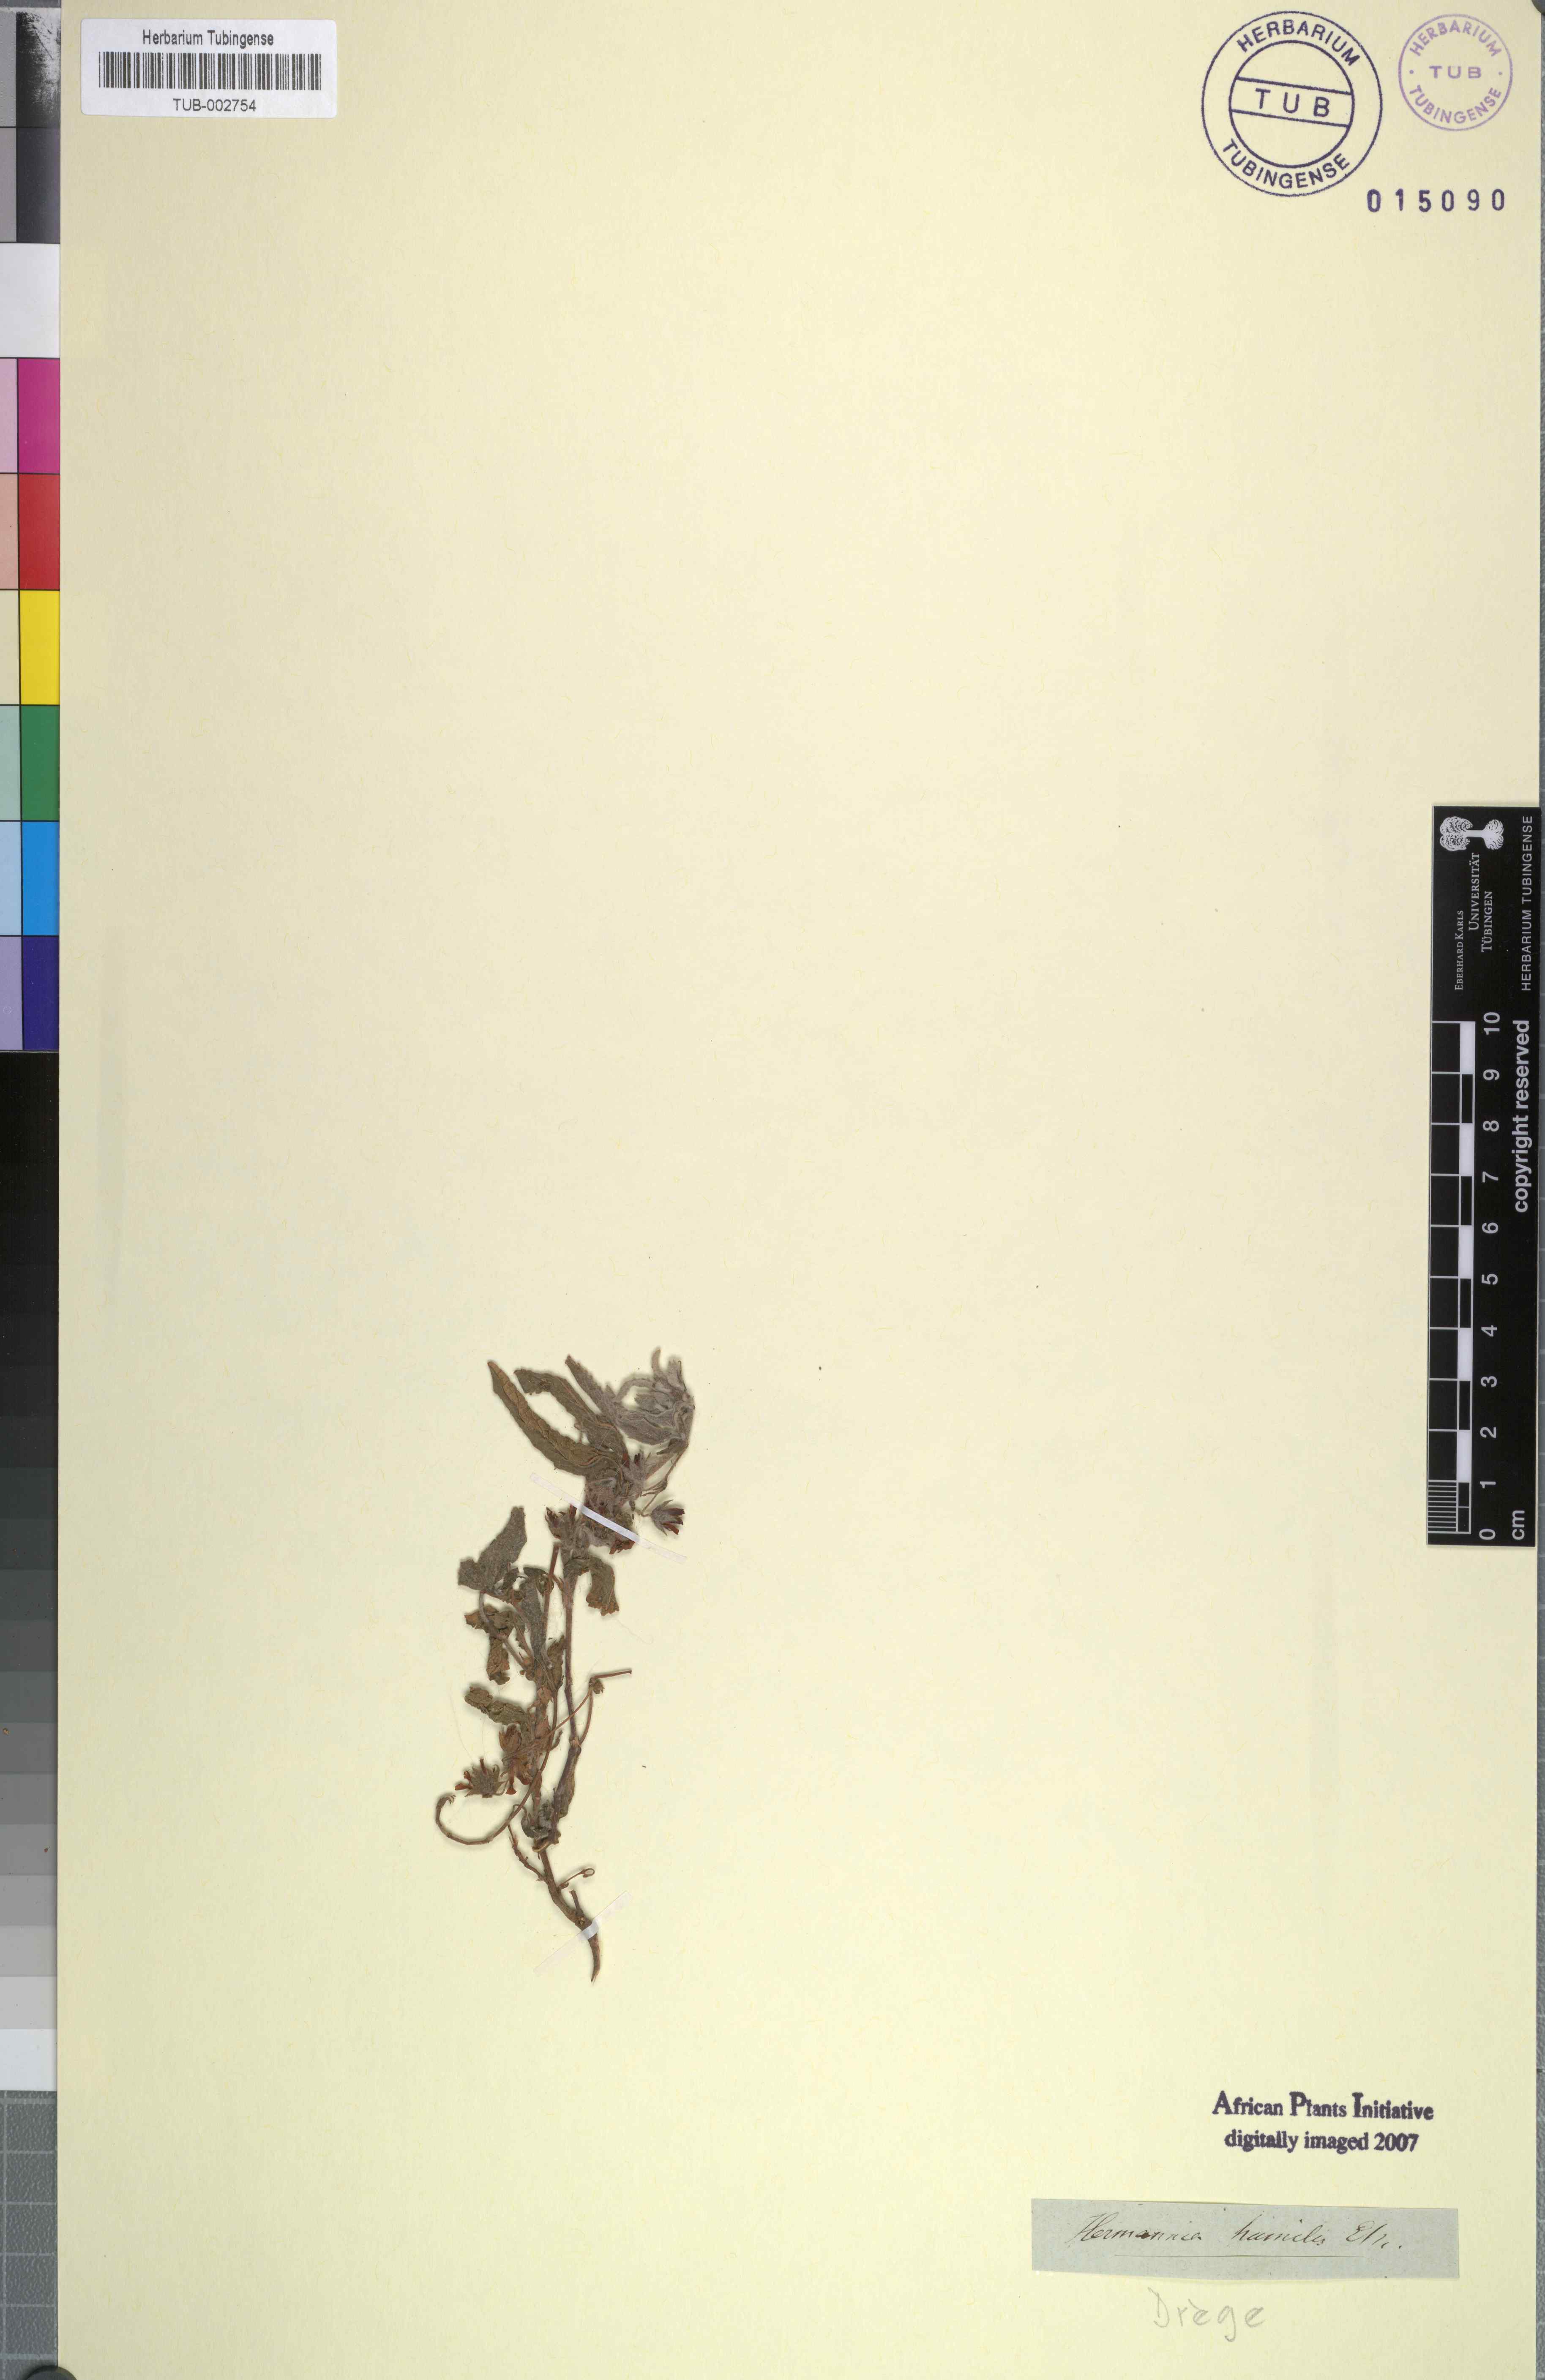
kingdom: Plantae
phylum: Tracheophyta
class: Magnoliopsida
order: Malvales
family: Malvaceae
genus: Hermannia
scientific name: Hermannia oblongifolia
